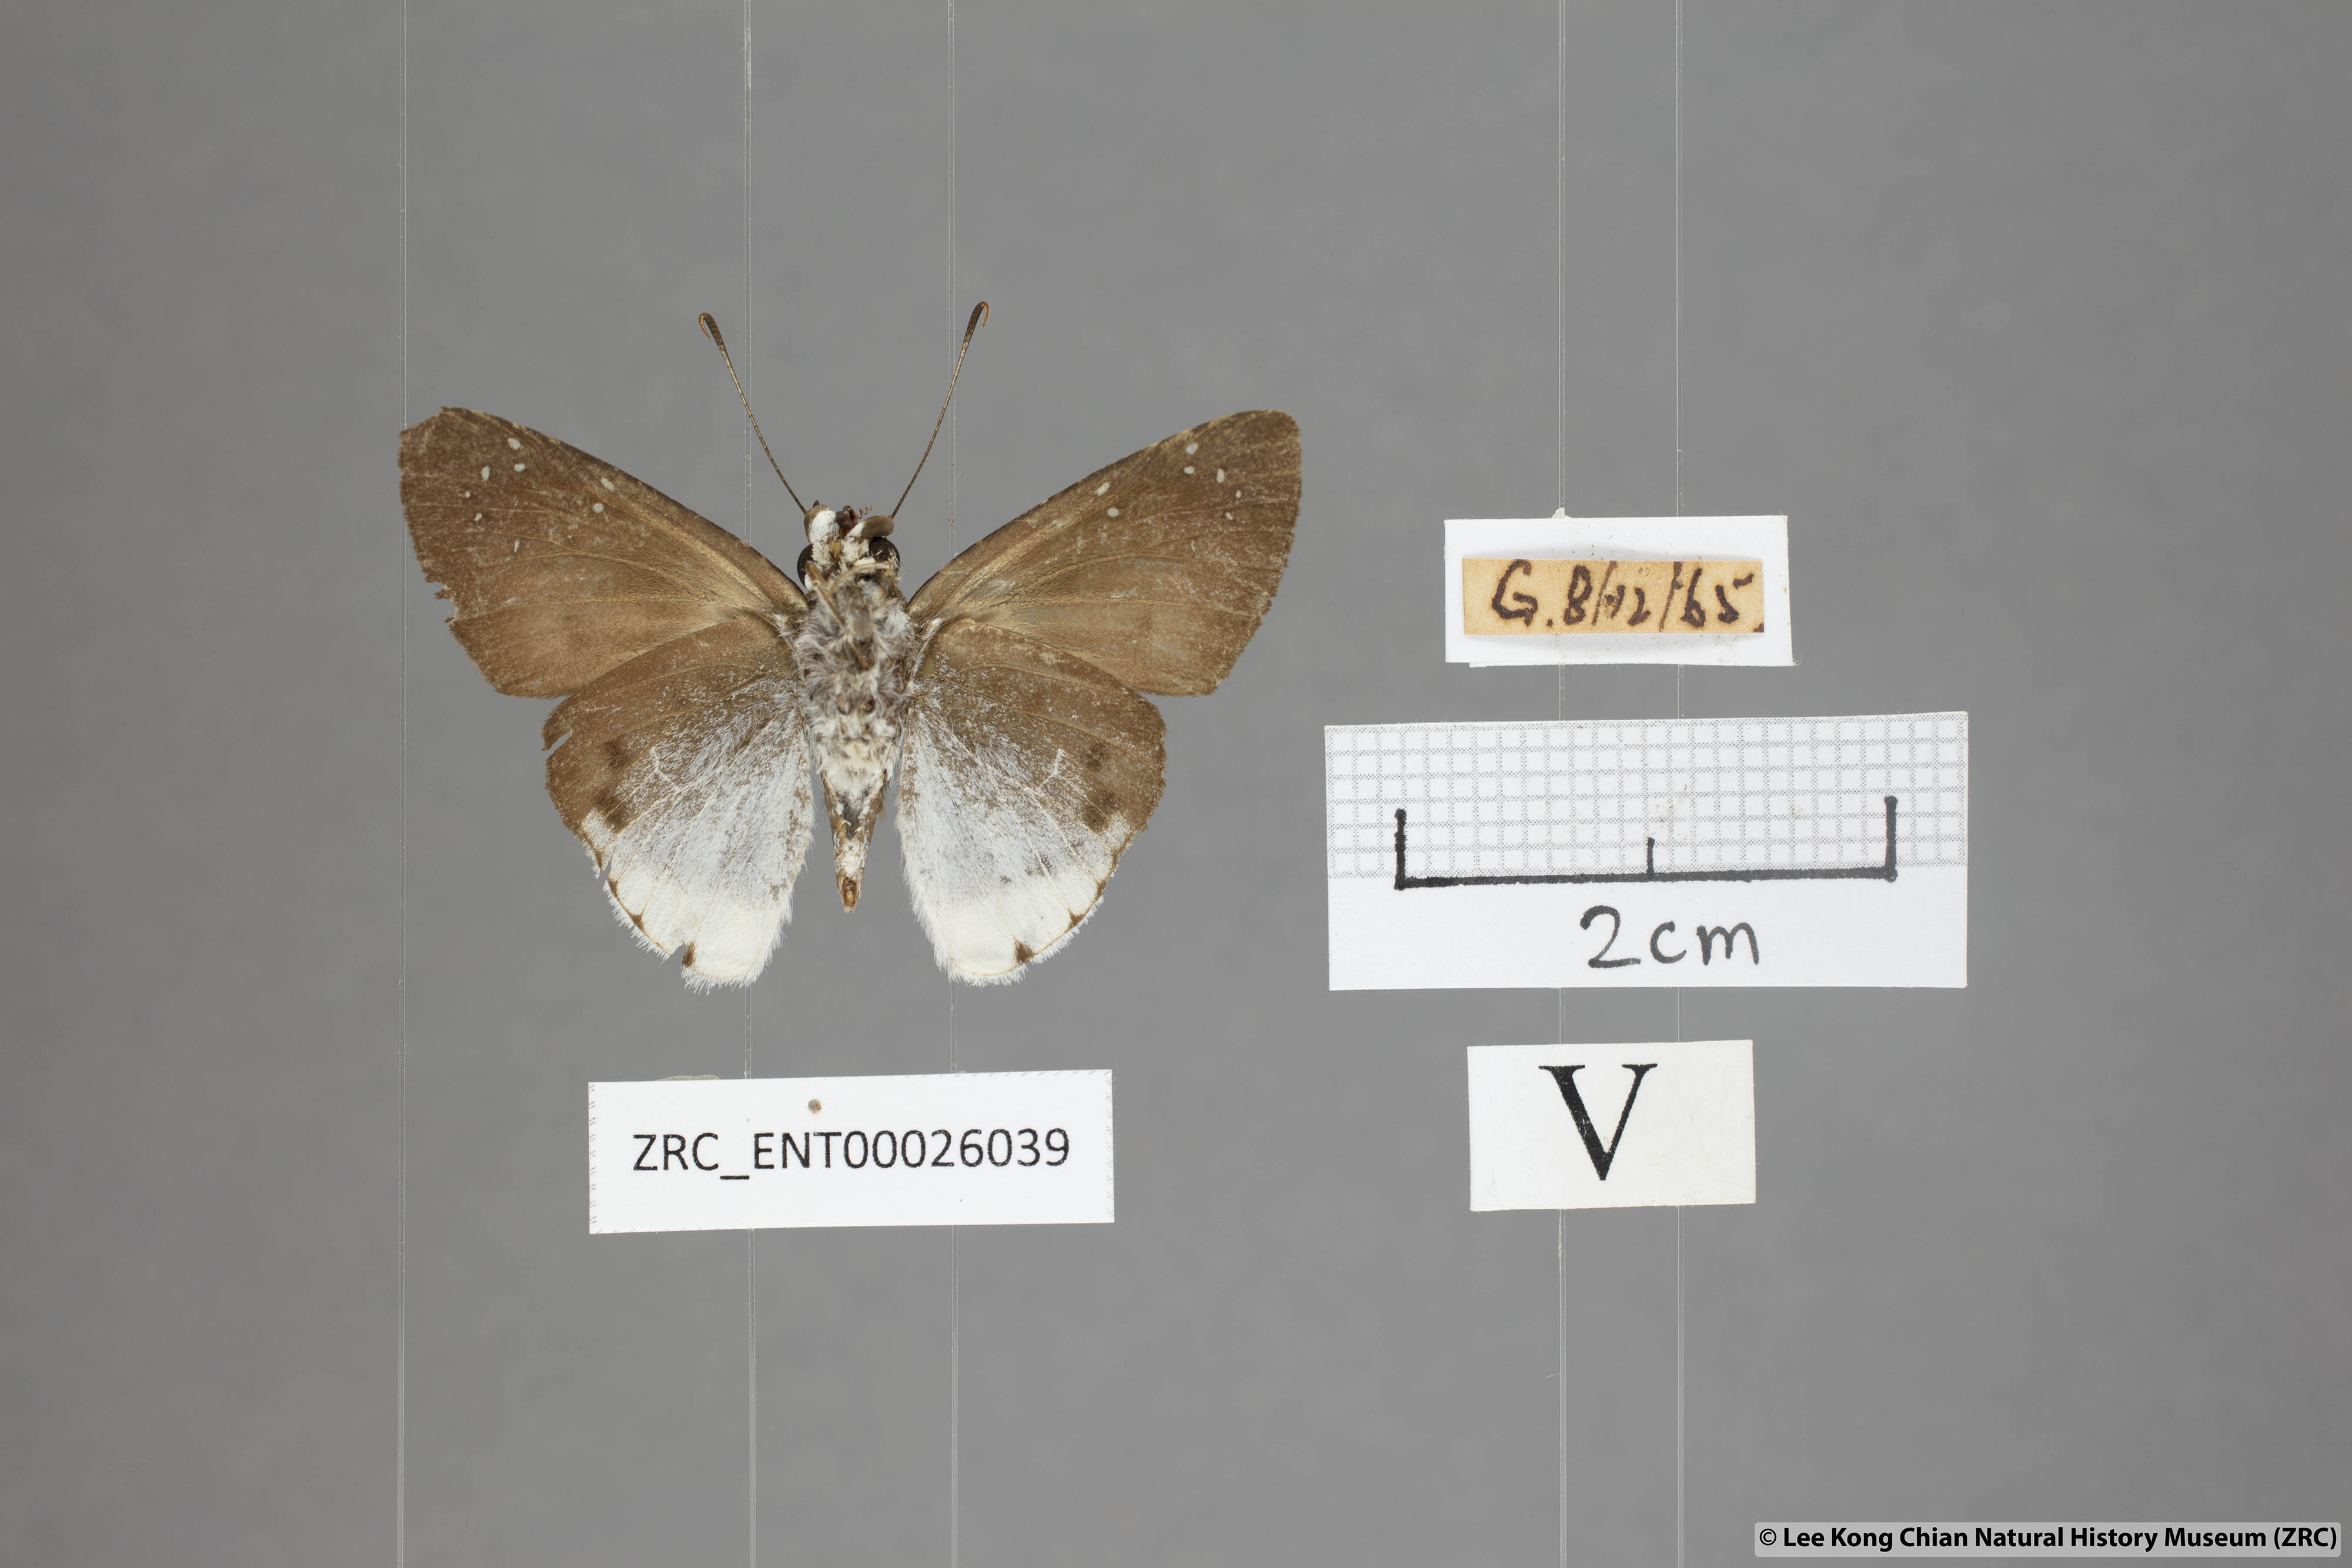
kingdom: Animalia
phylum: Arthropoda
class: Insecta
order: Lepidoptera
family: Hesperiidae
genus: Tagiades
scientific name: Tagiades toba
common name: Different-spotted snow flat
